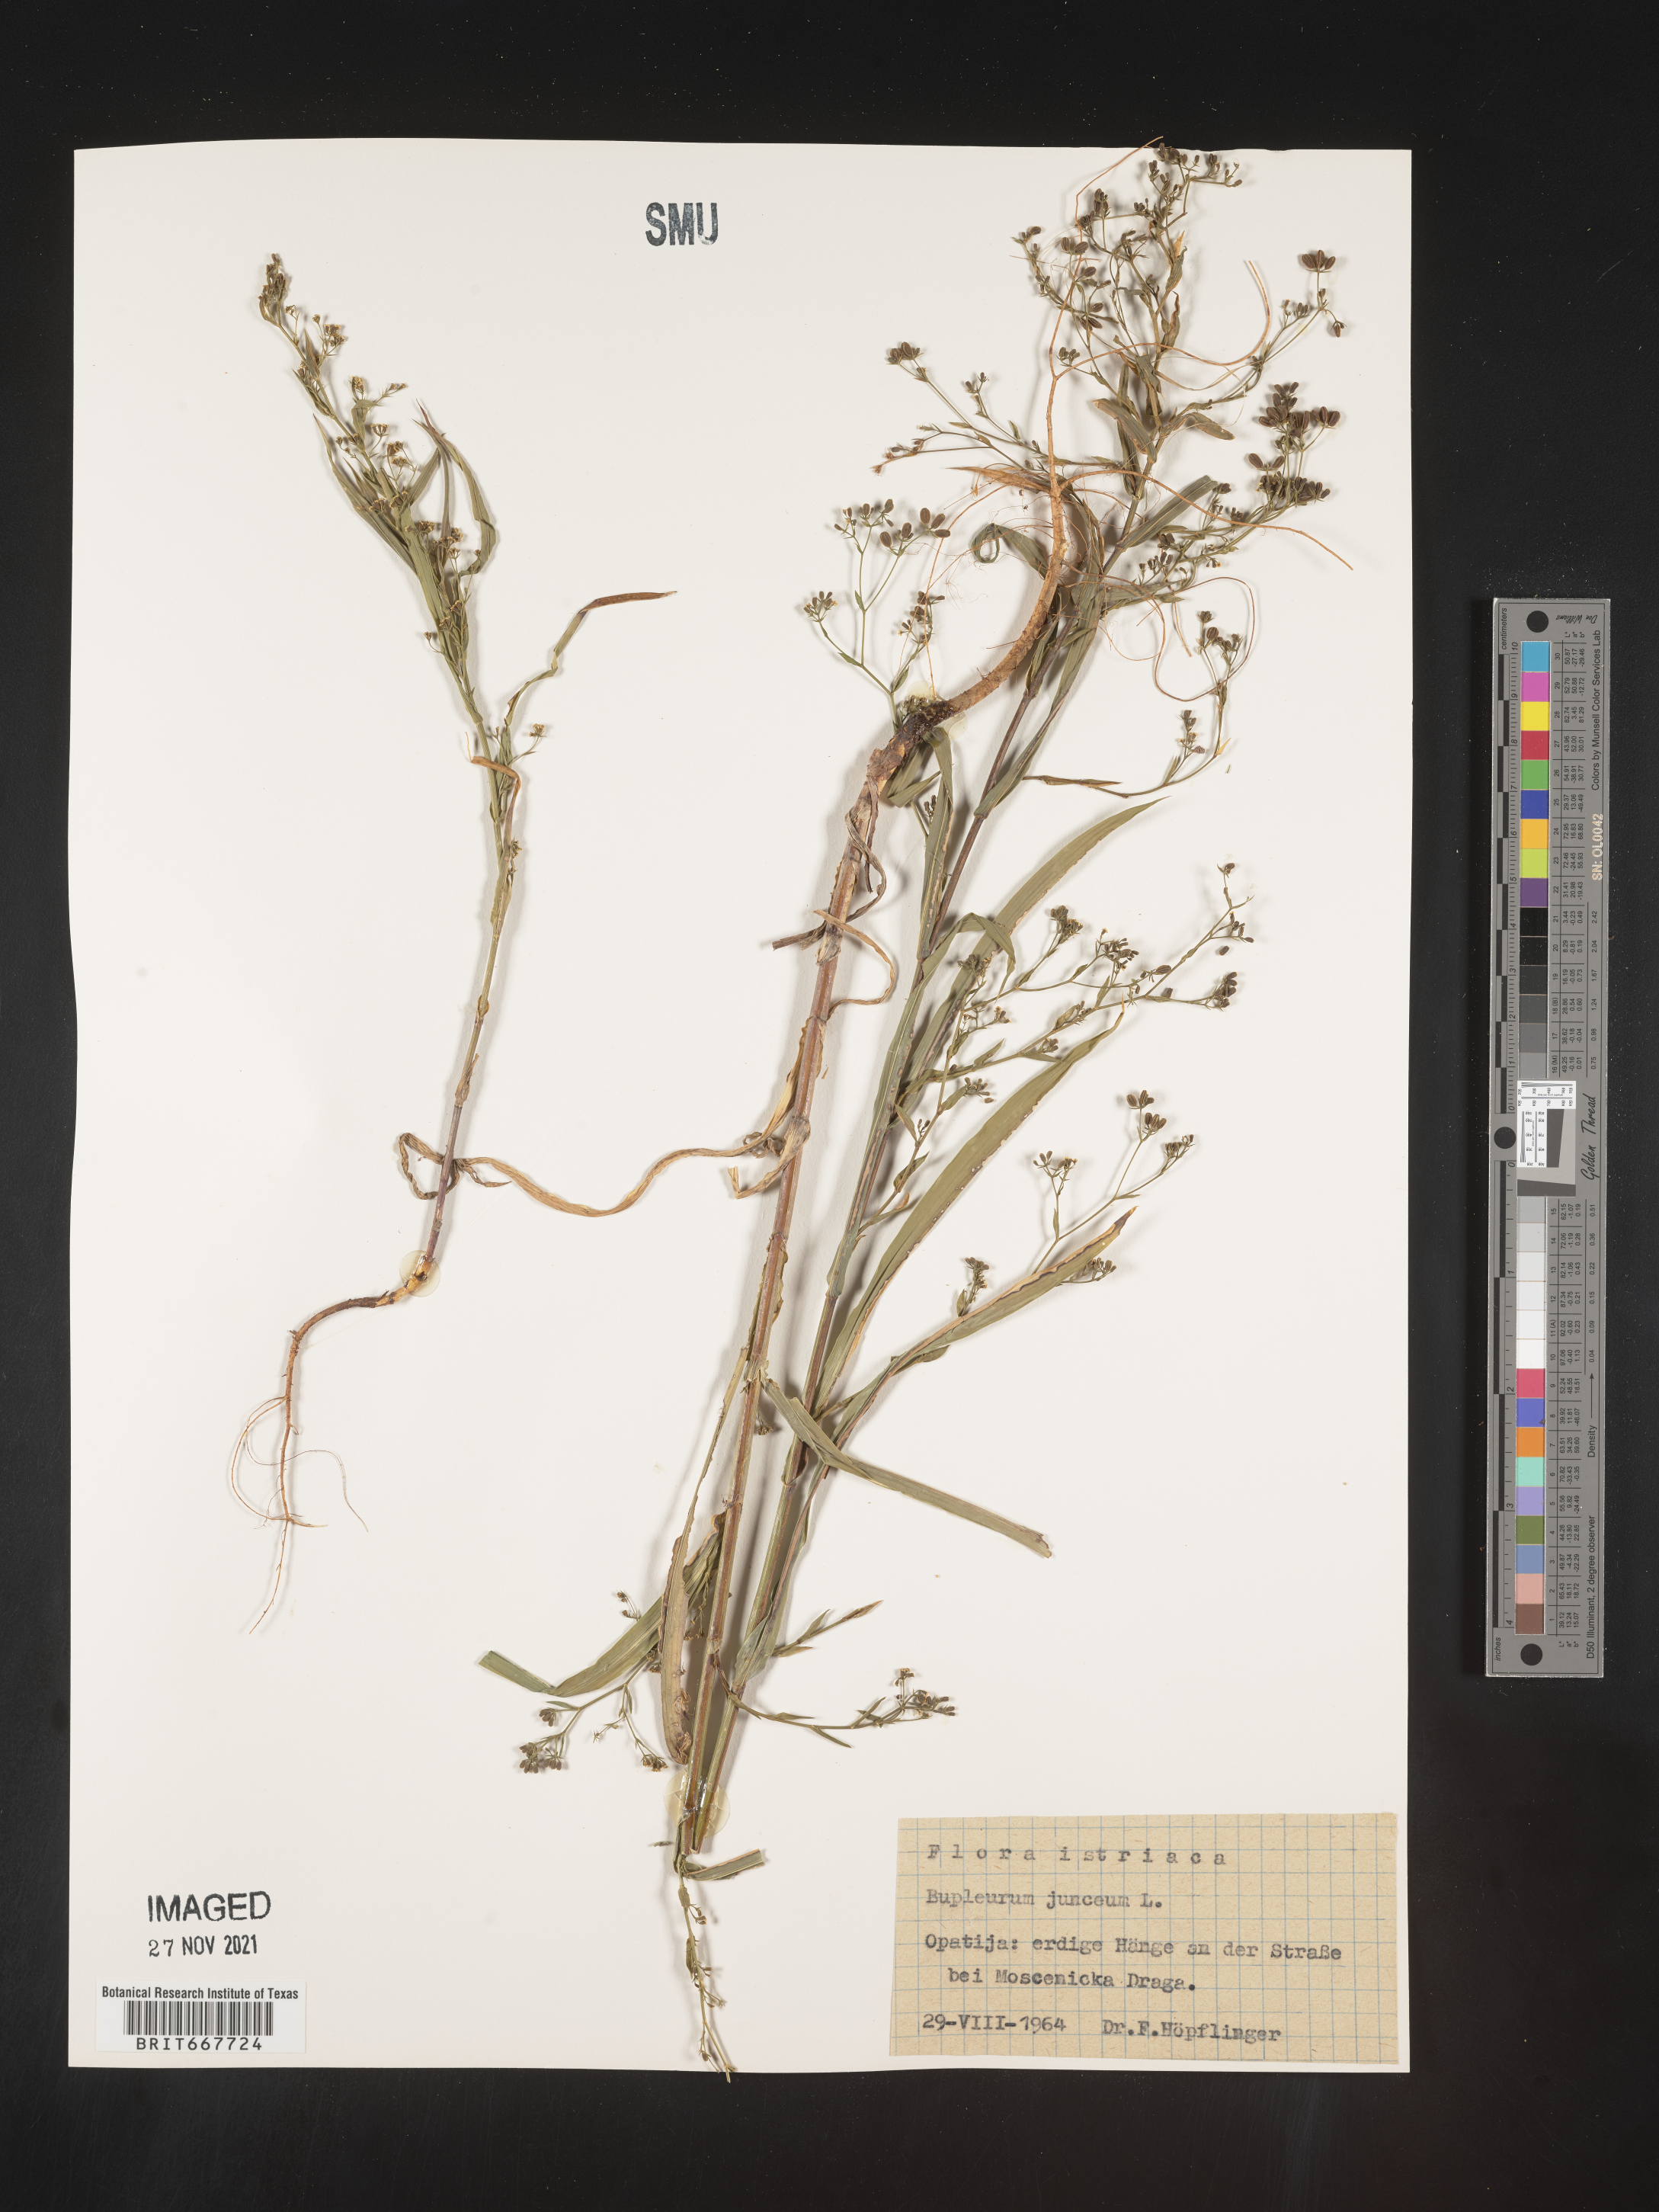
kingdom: Plantae
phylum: Tracheophyta
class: Magnoliopsida
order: Apiales
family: Apiaceae
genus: Bupleurum
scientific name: Bupleurum
